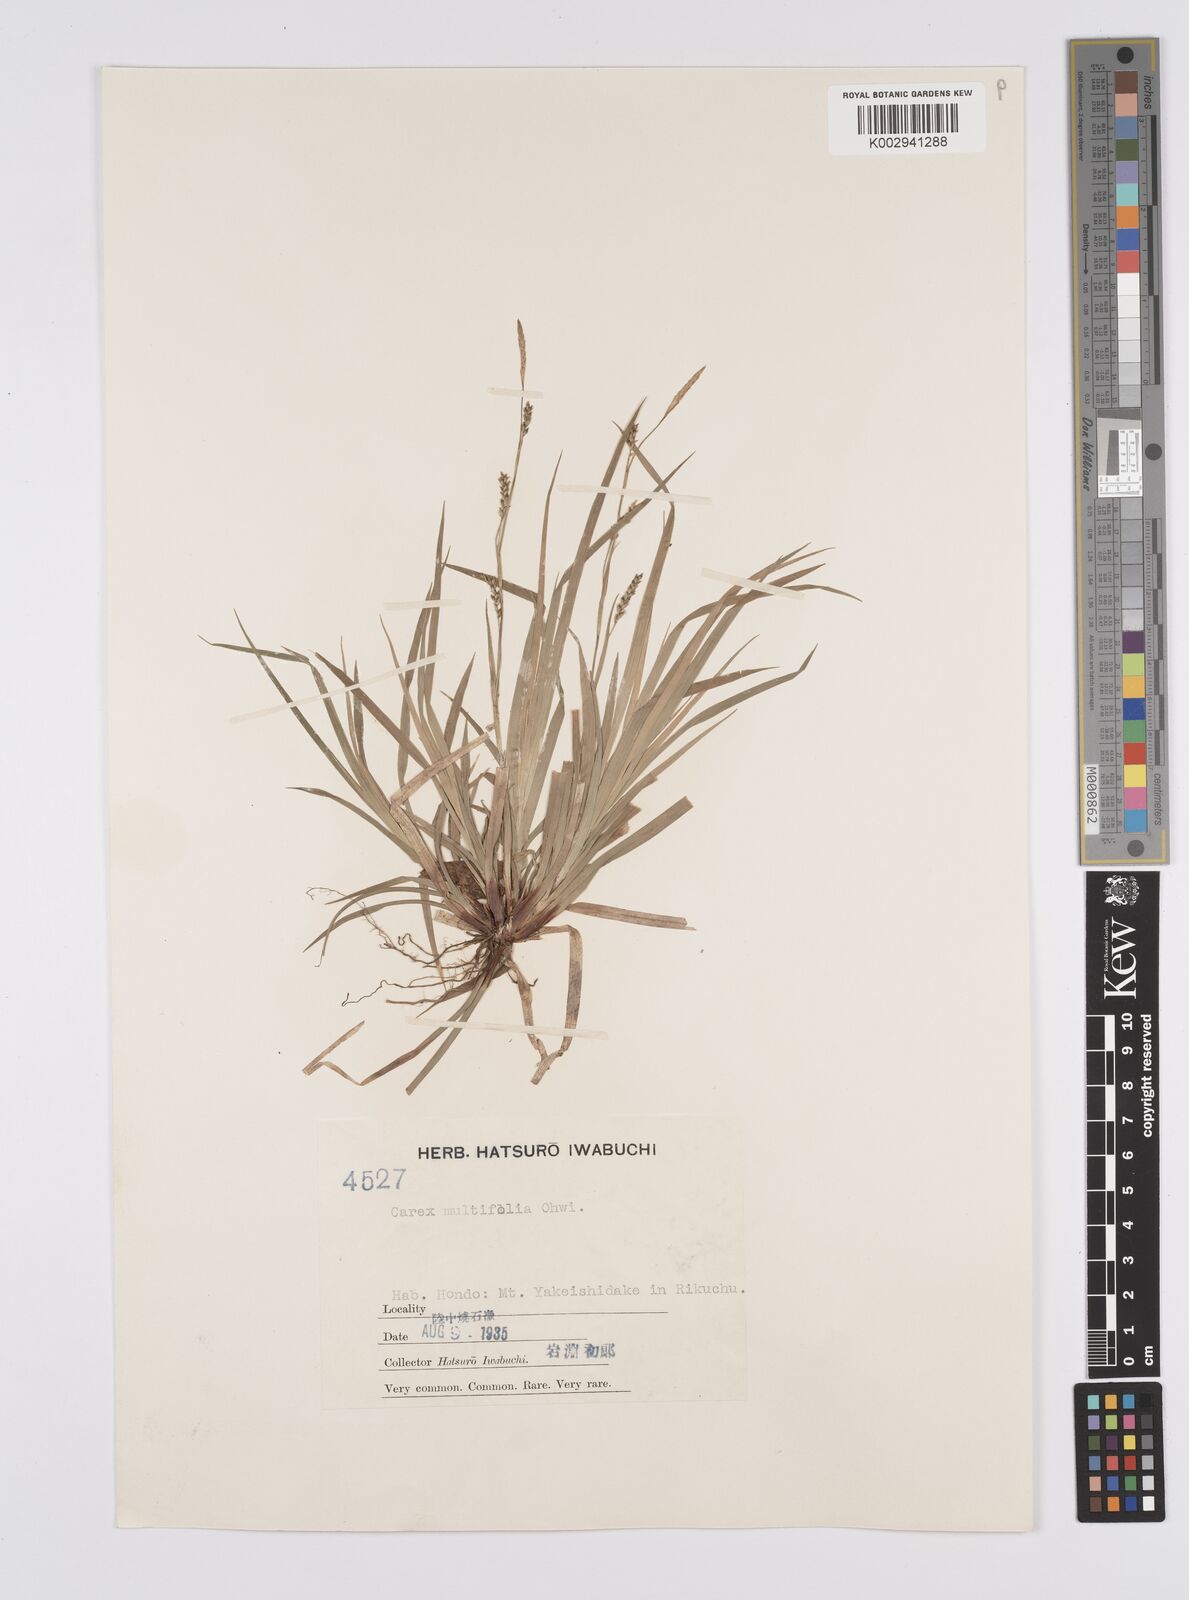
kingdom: Plantae
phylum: Tracheophyta
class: Liliopsida
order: Poales
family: Cyperaceae
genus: Carex
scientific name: Carex dolichostachya
